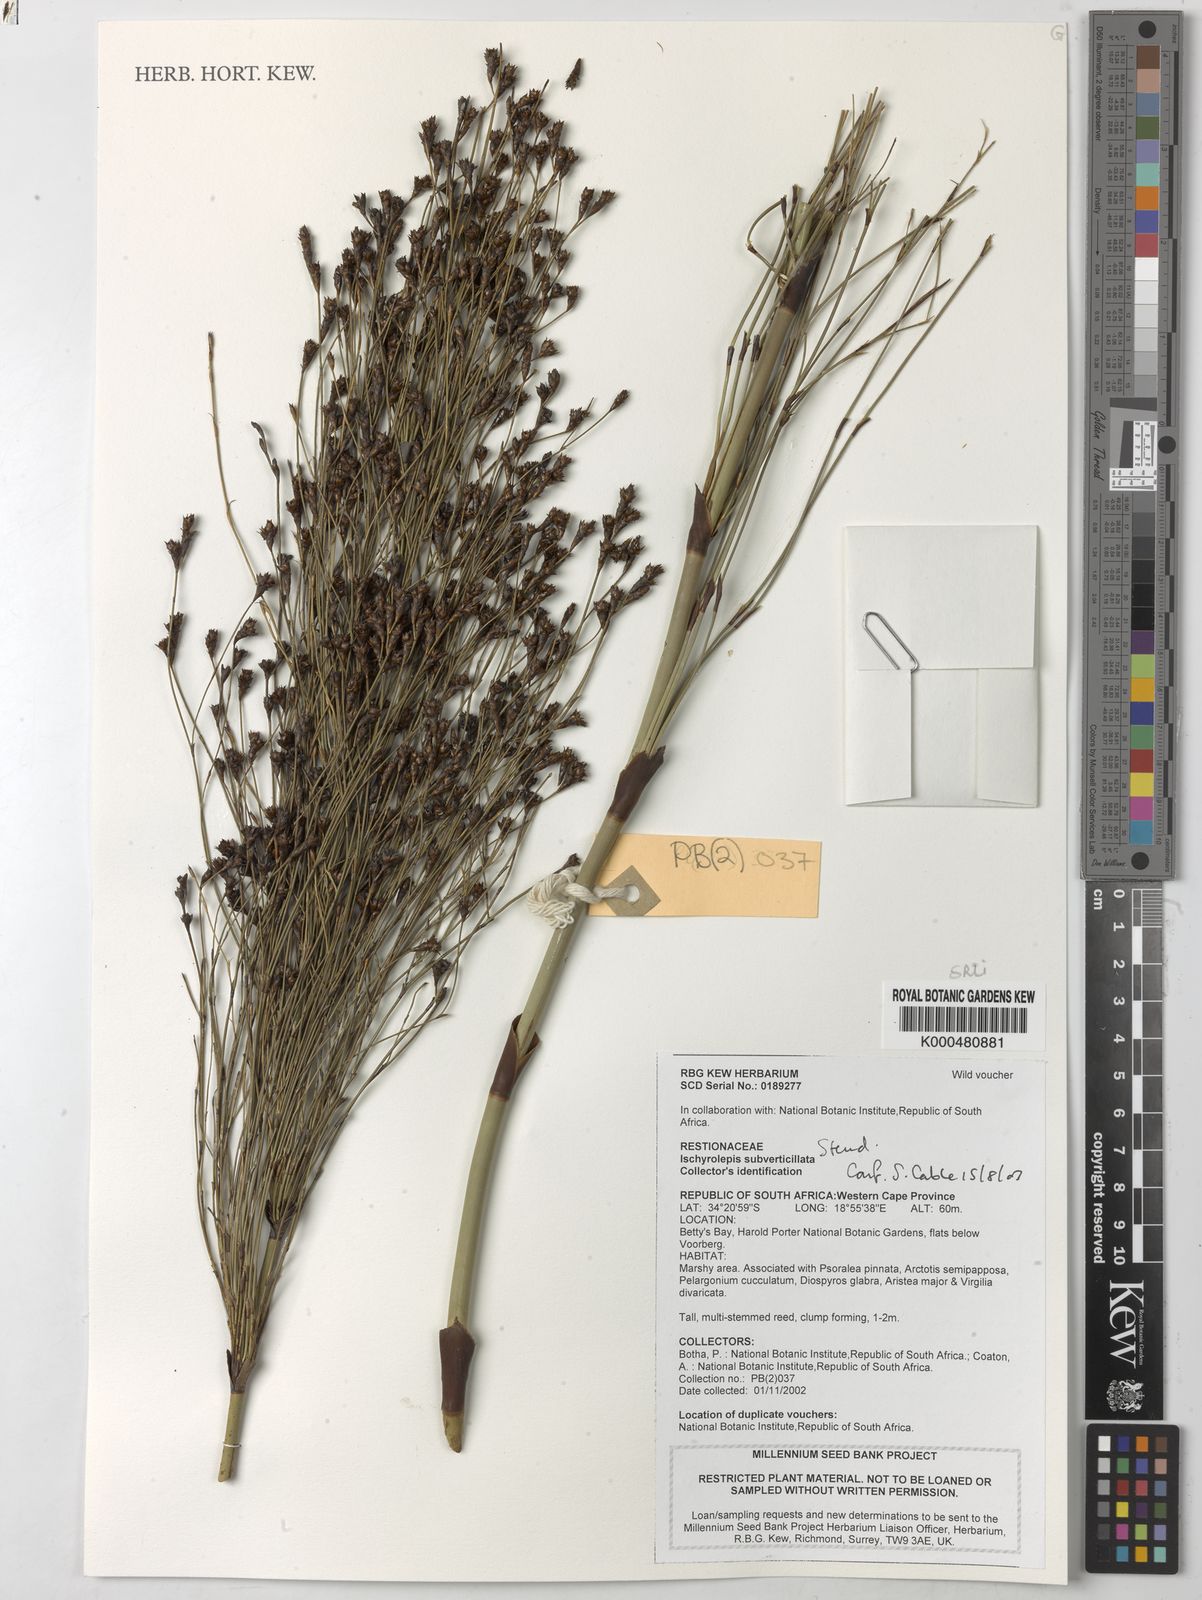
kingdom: Plantae
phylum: Tracheophyta
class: Liliopsida
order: Poales
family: Restionaceae
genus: Restio
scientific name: Restio subverticillatus
